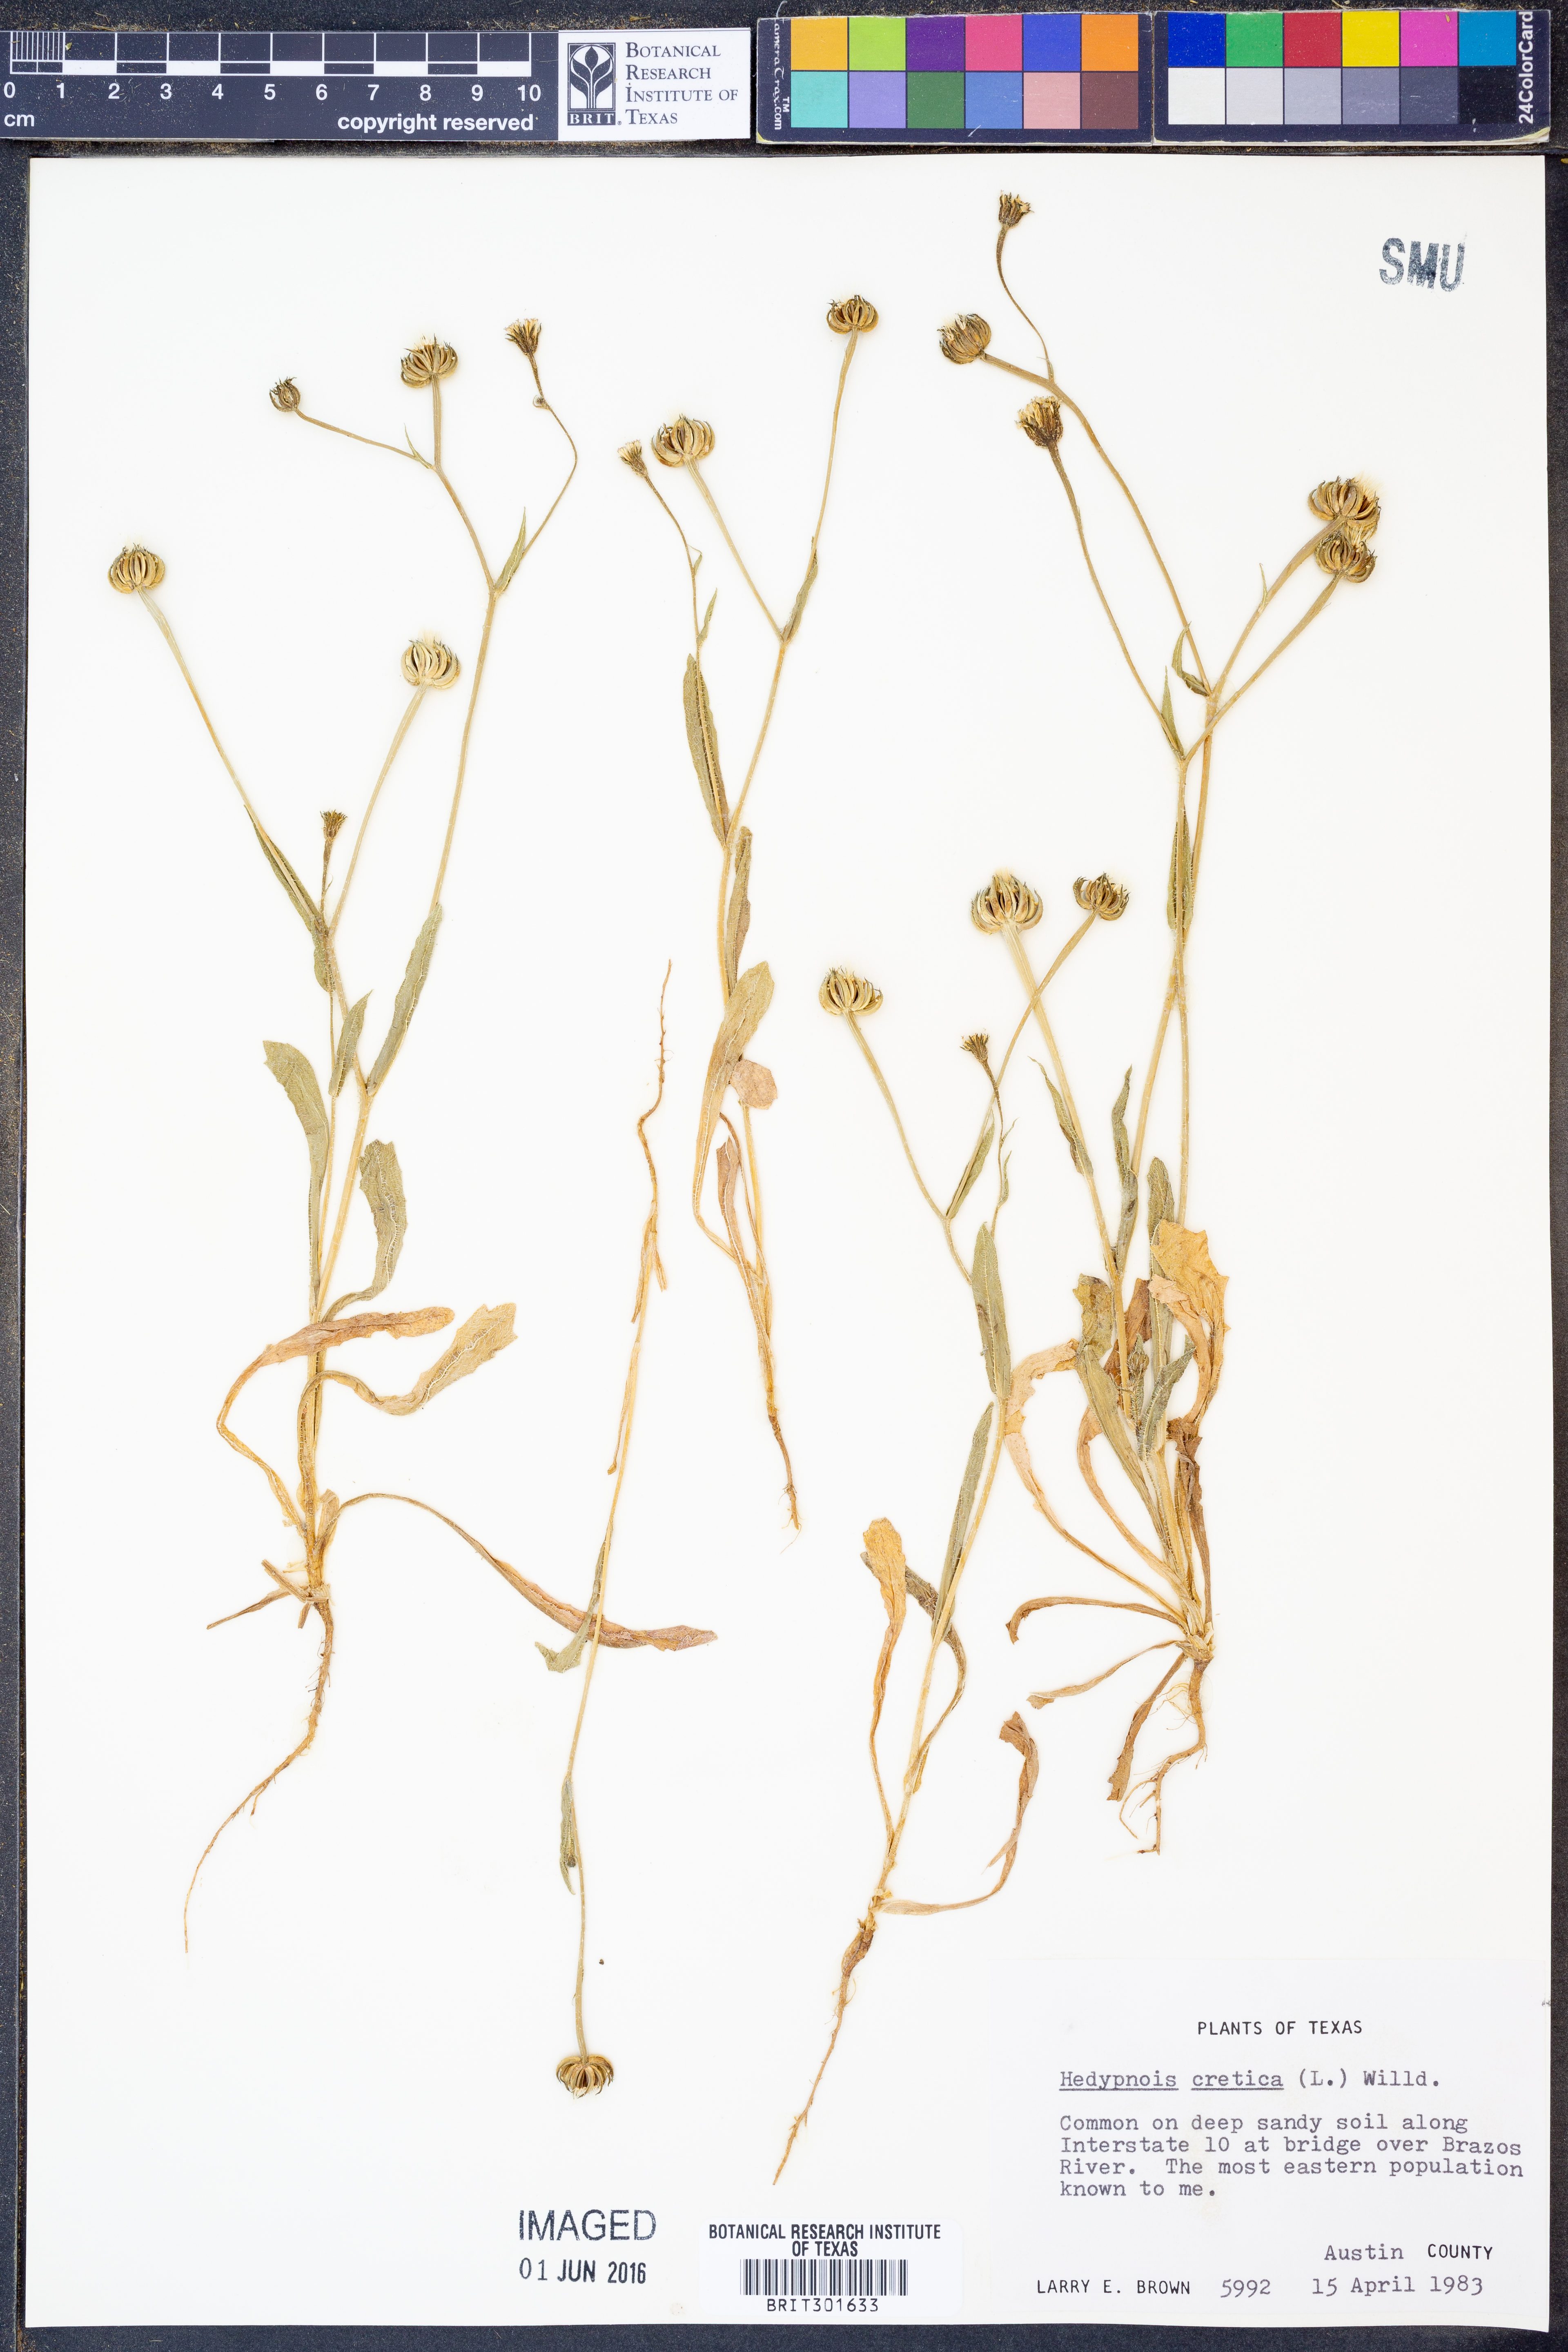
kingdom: Plantae
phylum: Tracheophyta
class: Magnoliopsida
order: Asterales
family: Asteraceae
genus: Hedypnois
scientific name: Hedypnois cretica
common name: Scaly hawkbit
